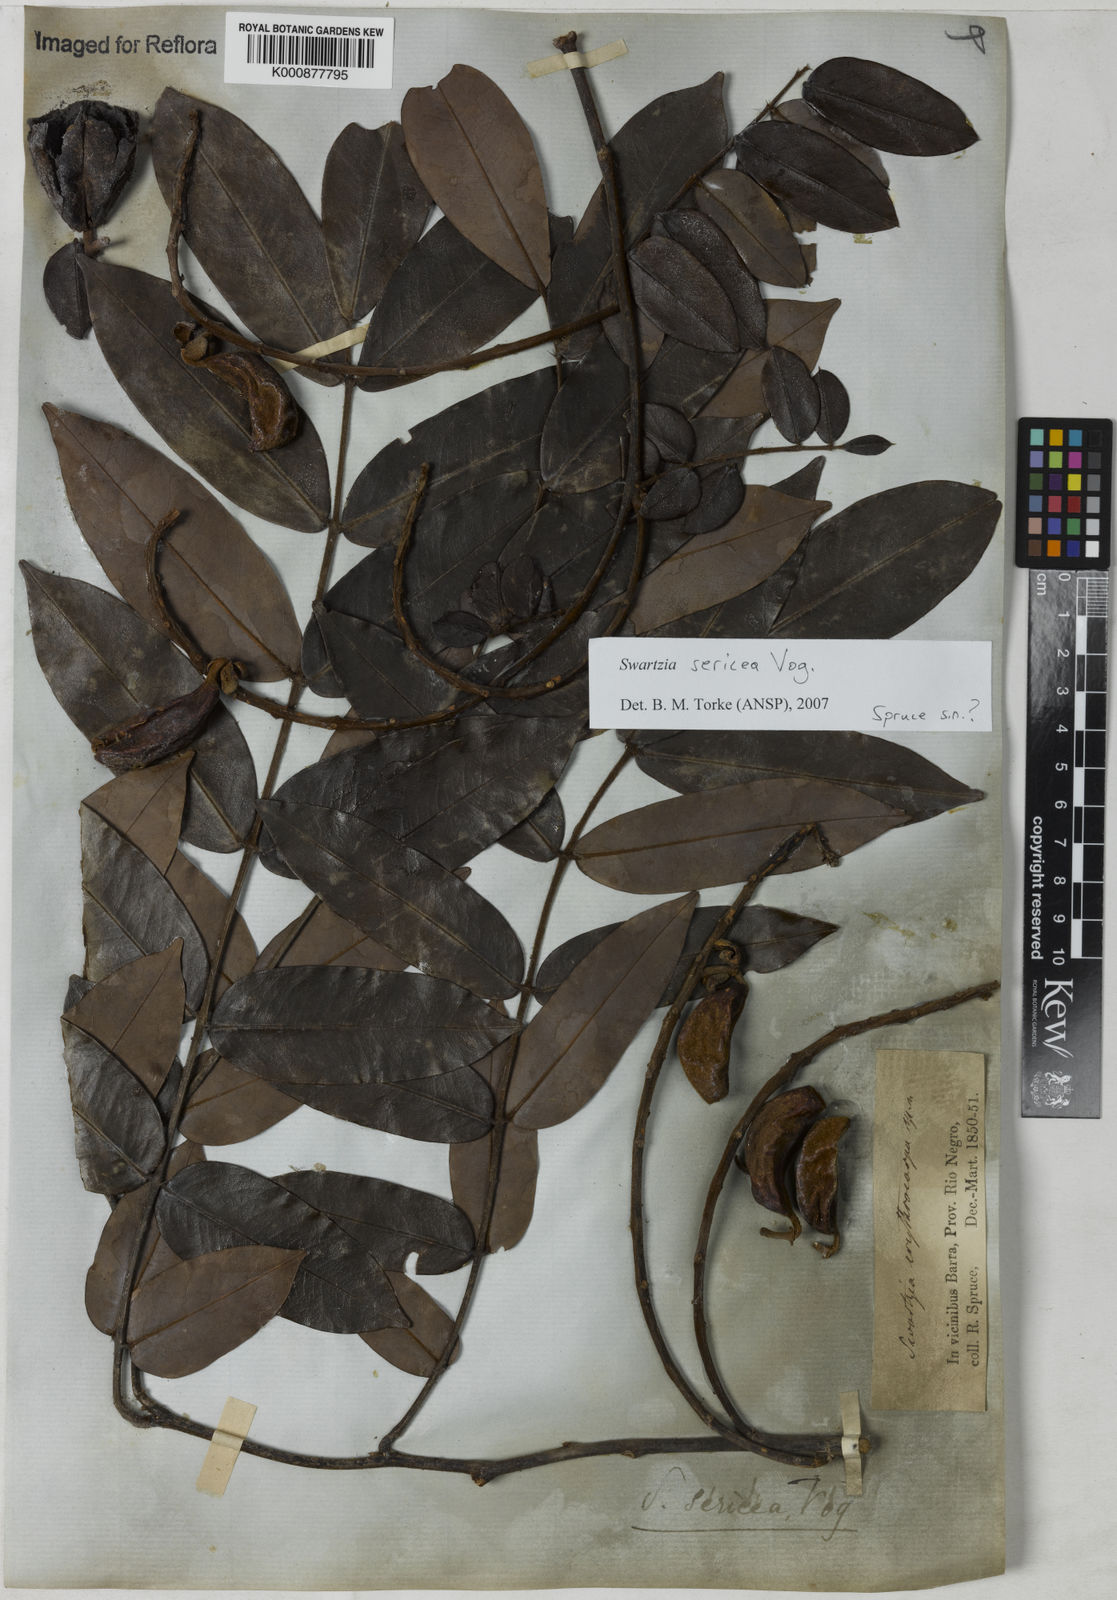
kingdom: Plantae
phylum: Tracheophyta
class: Magnoliopsida
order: Fabales
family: Fabaceae
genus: Swartzia
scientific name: Swartzia sericea
